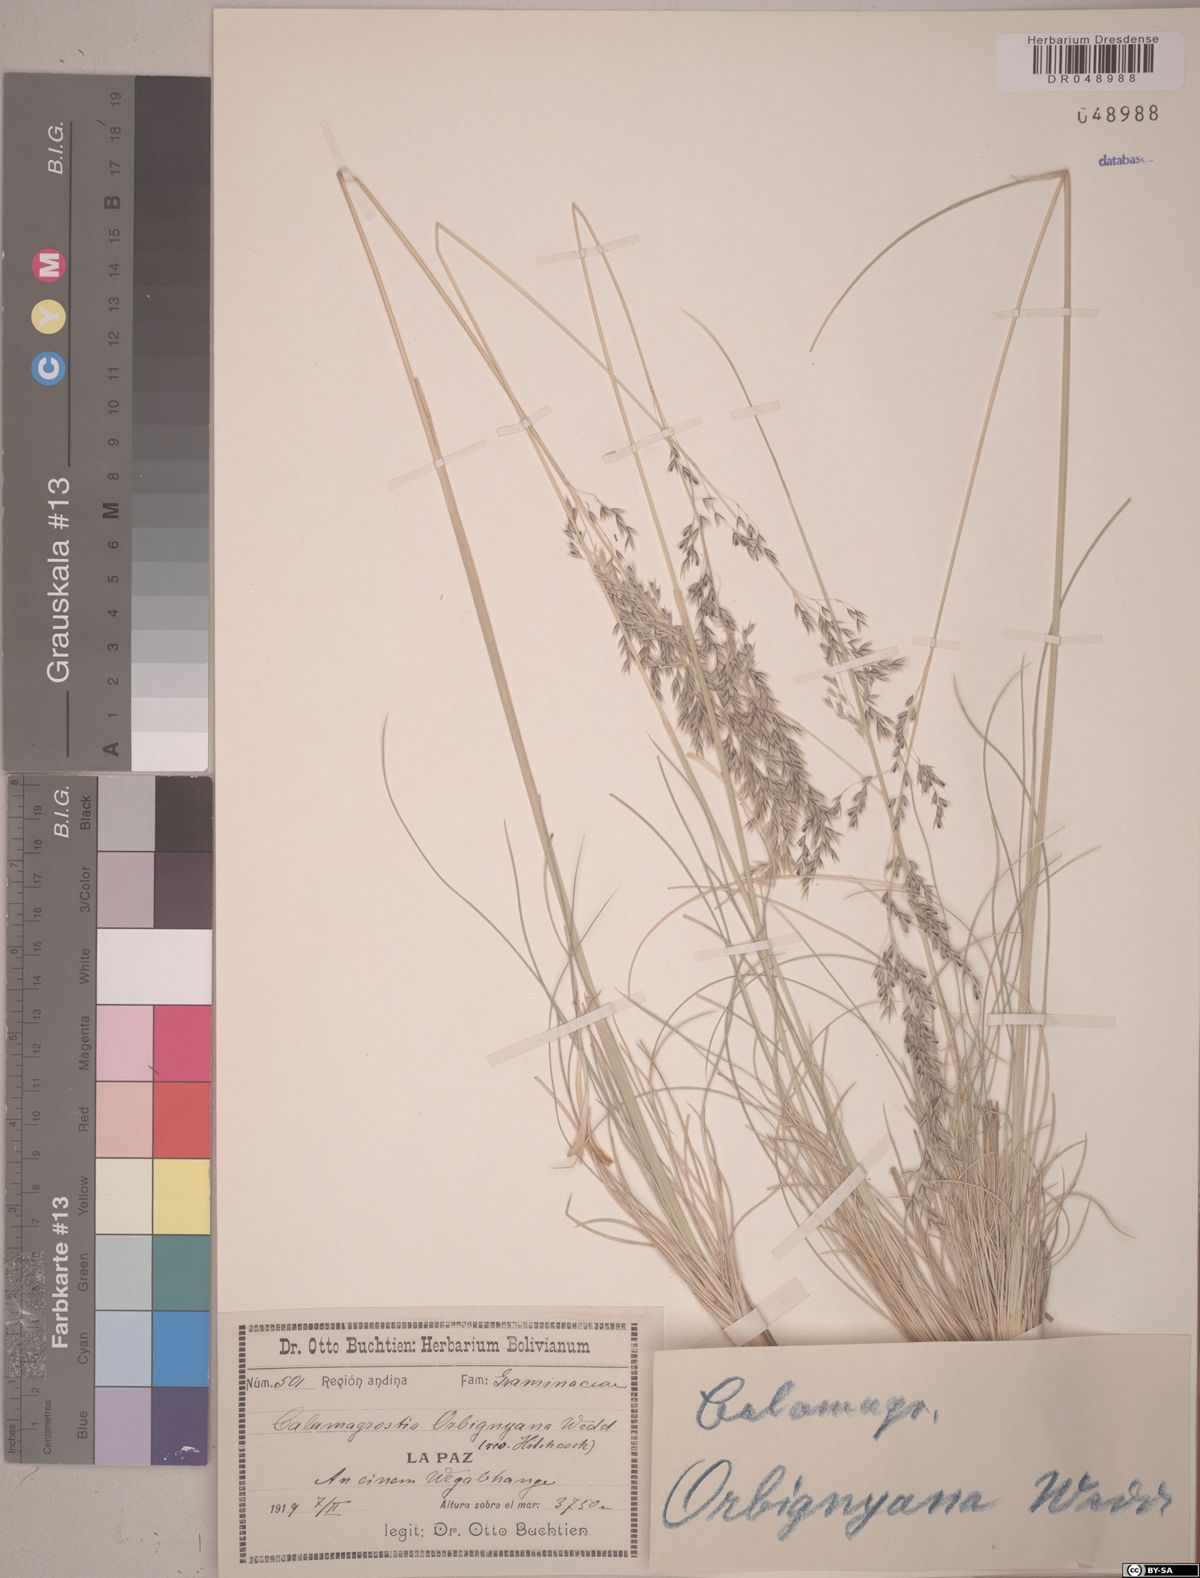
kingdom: Plantae
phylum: Tracheophyta
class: Liliopsida
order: Poales
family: Poaceae
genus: Cinnagrostis
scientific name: Cinnagrostis orbignyana
